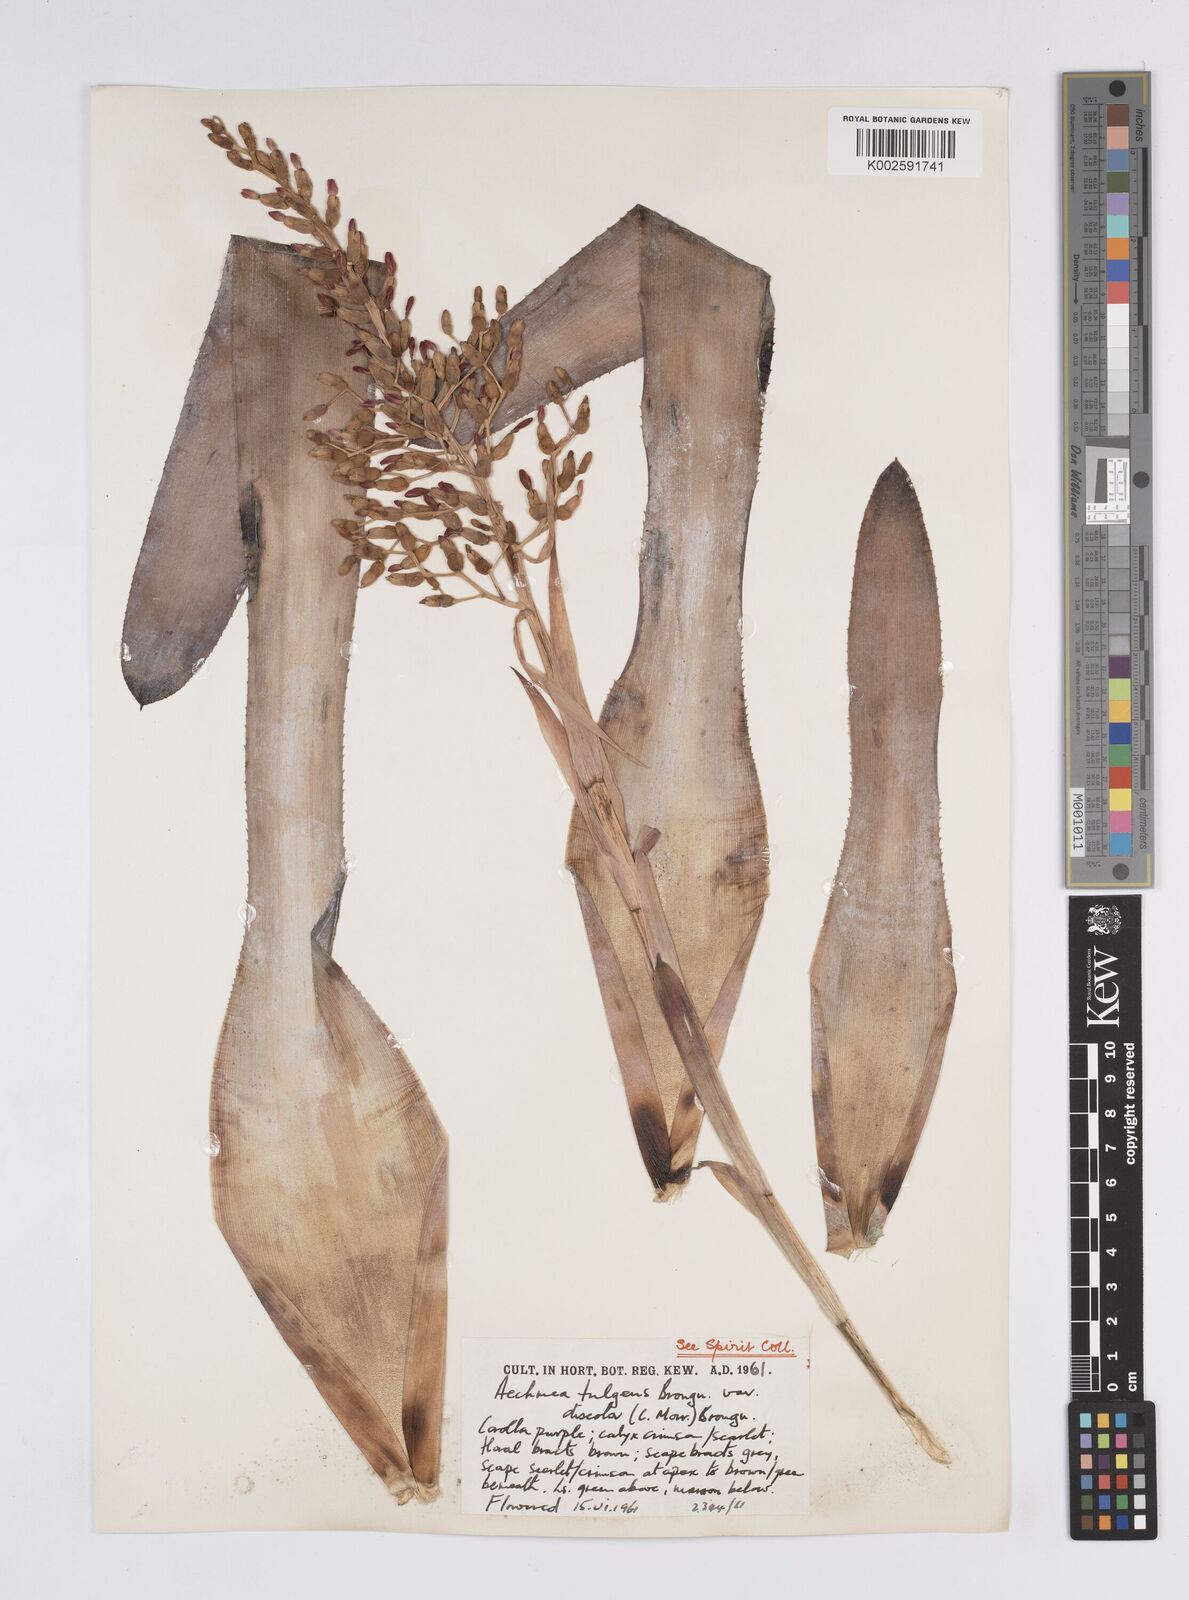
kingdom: Plantae
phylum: Tracheophyta
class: Liliopsida
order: Poales
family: Bromeliaceae
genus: Aechmea
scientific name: Aechmea fulgens
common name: Coralberry
